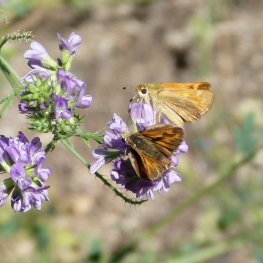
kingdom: Animalia
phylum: Arthropoda
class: Insecta
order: Lepidoptera
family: Hesperiidae
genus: Ochlodes
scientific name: Ochlodes sylvanoides
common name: Woodland Skipper
